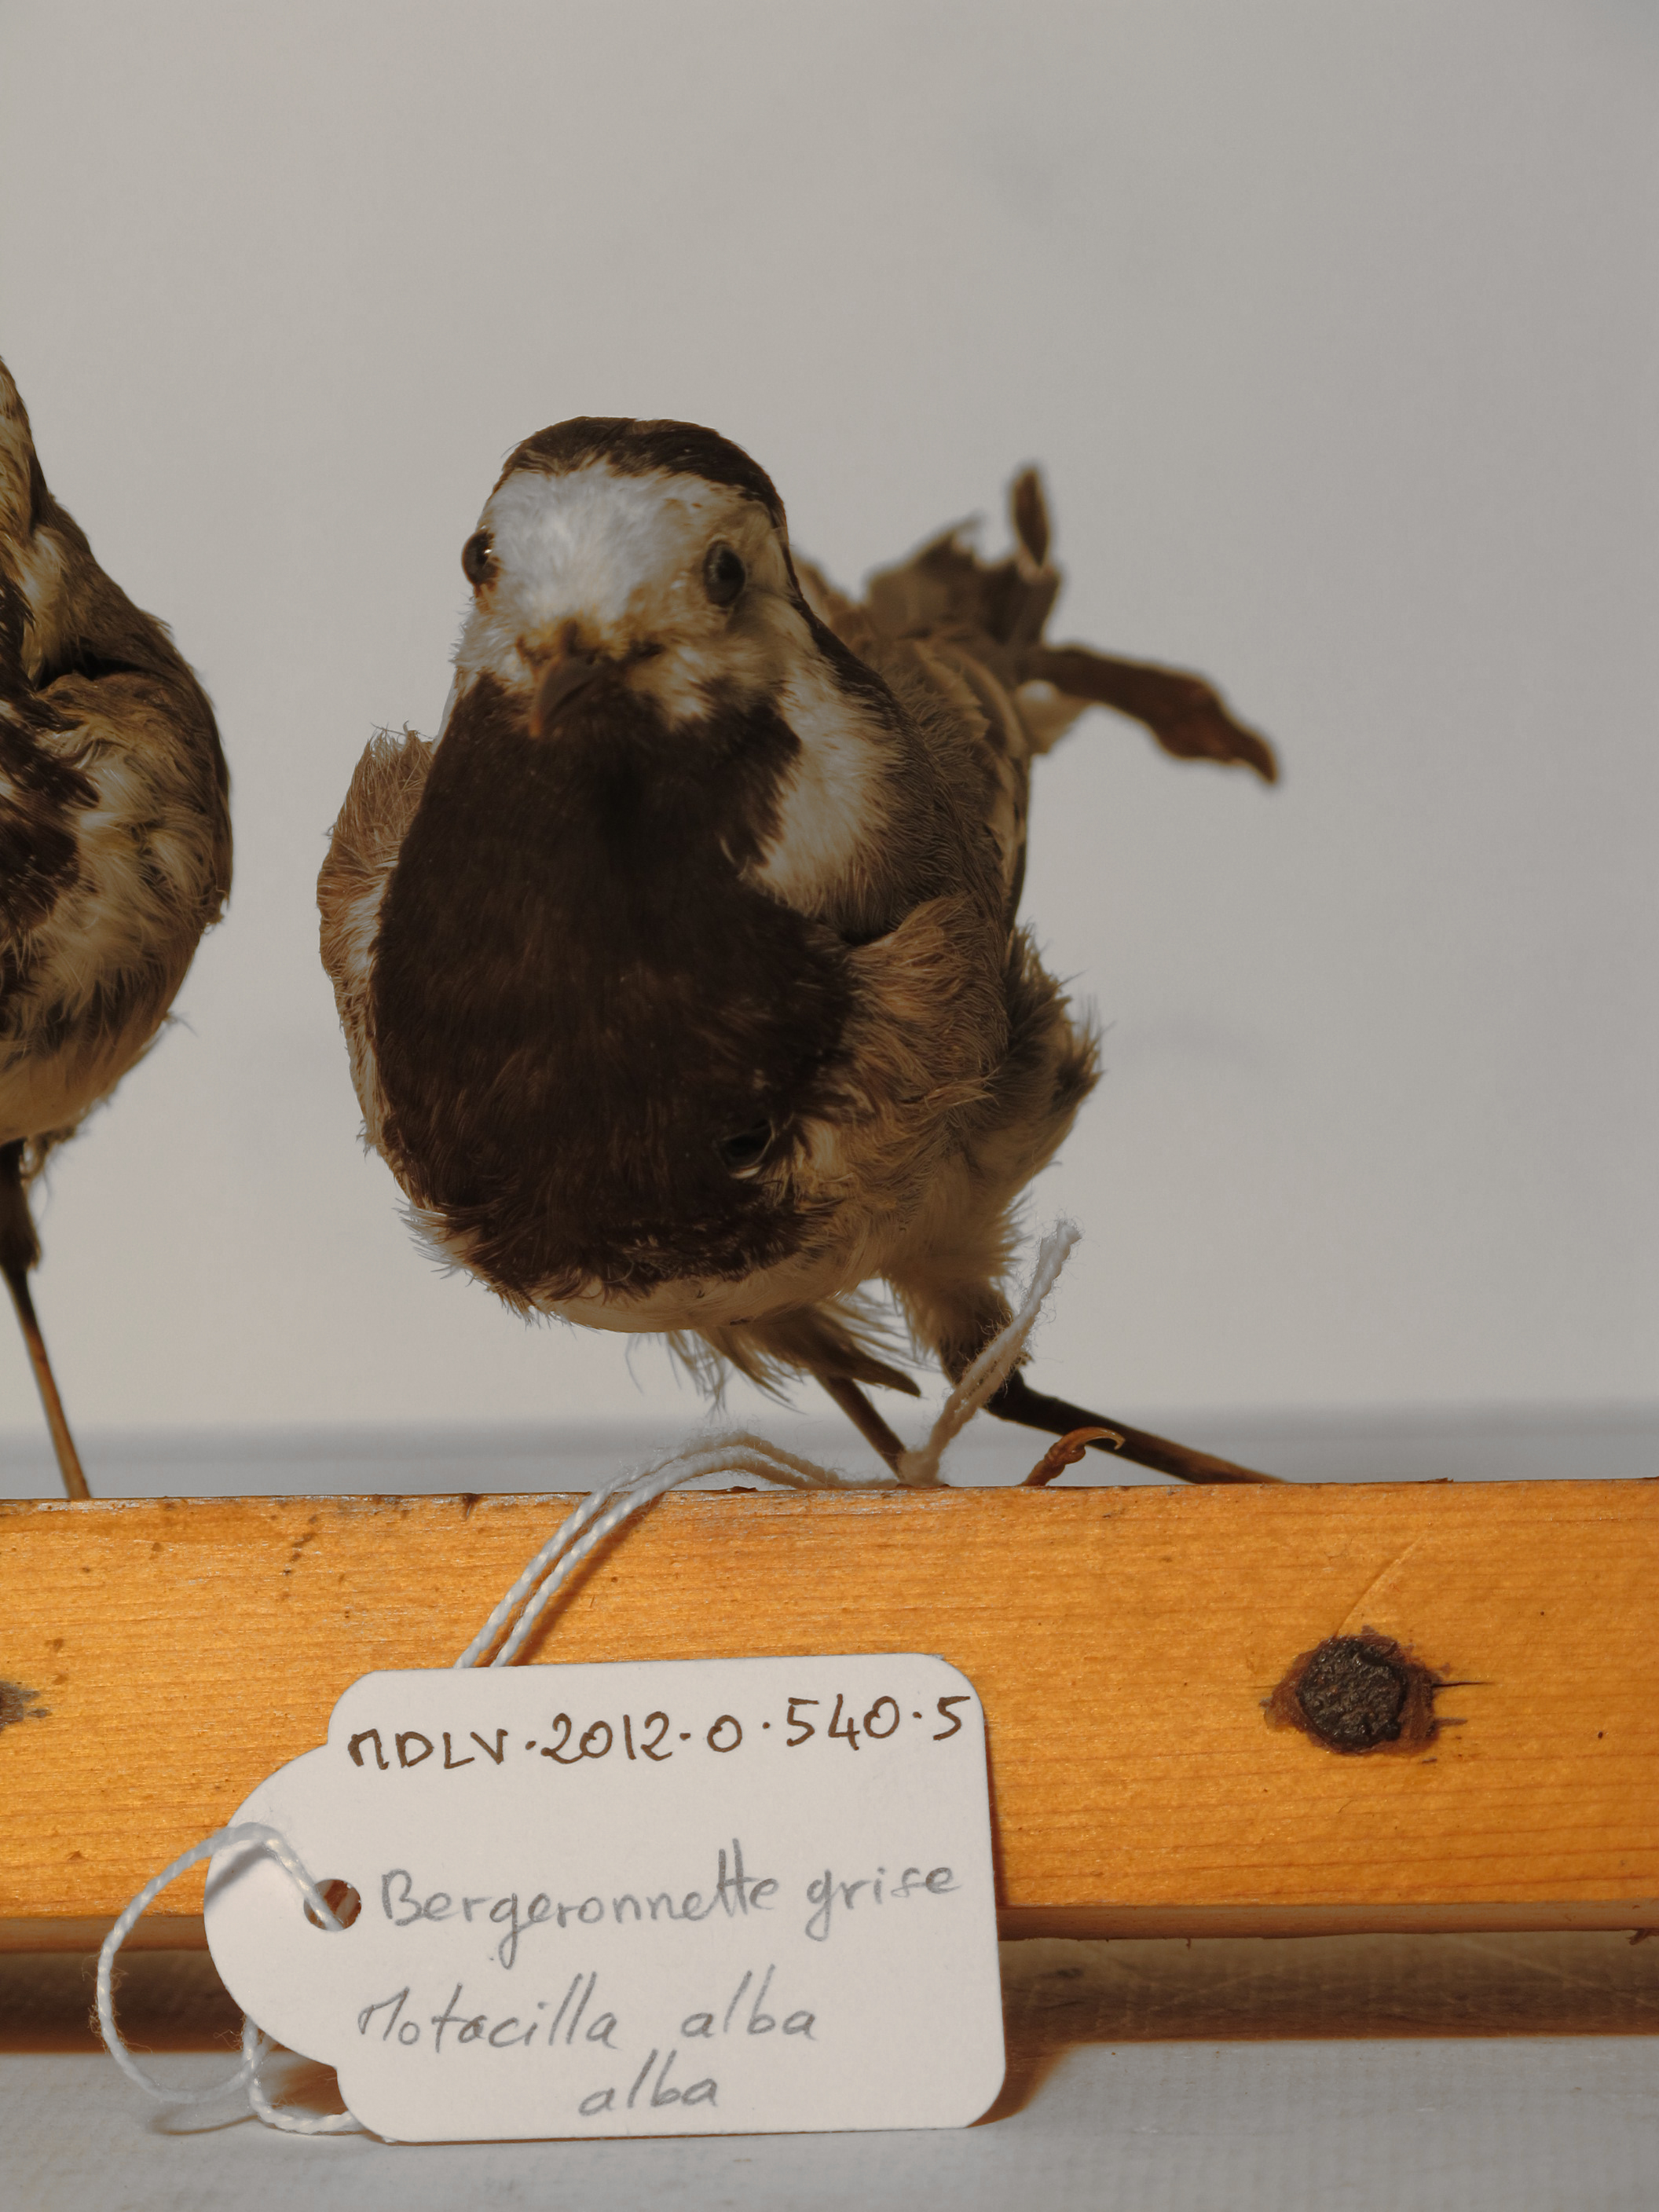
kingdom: Animalia
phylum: Chordata
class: Aves
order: Passeriformes
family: Motacillidae
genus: Motacilla
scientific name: Motacilla alba
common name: White Wagtail
